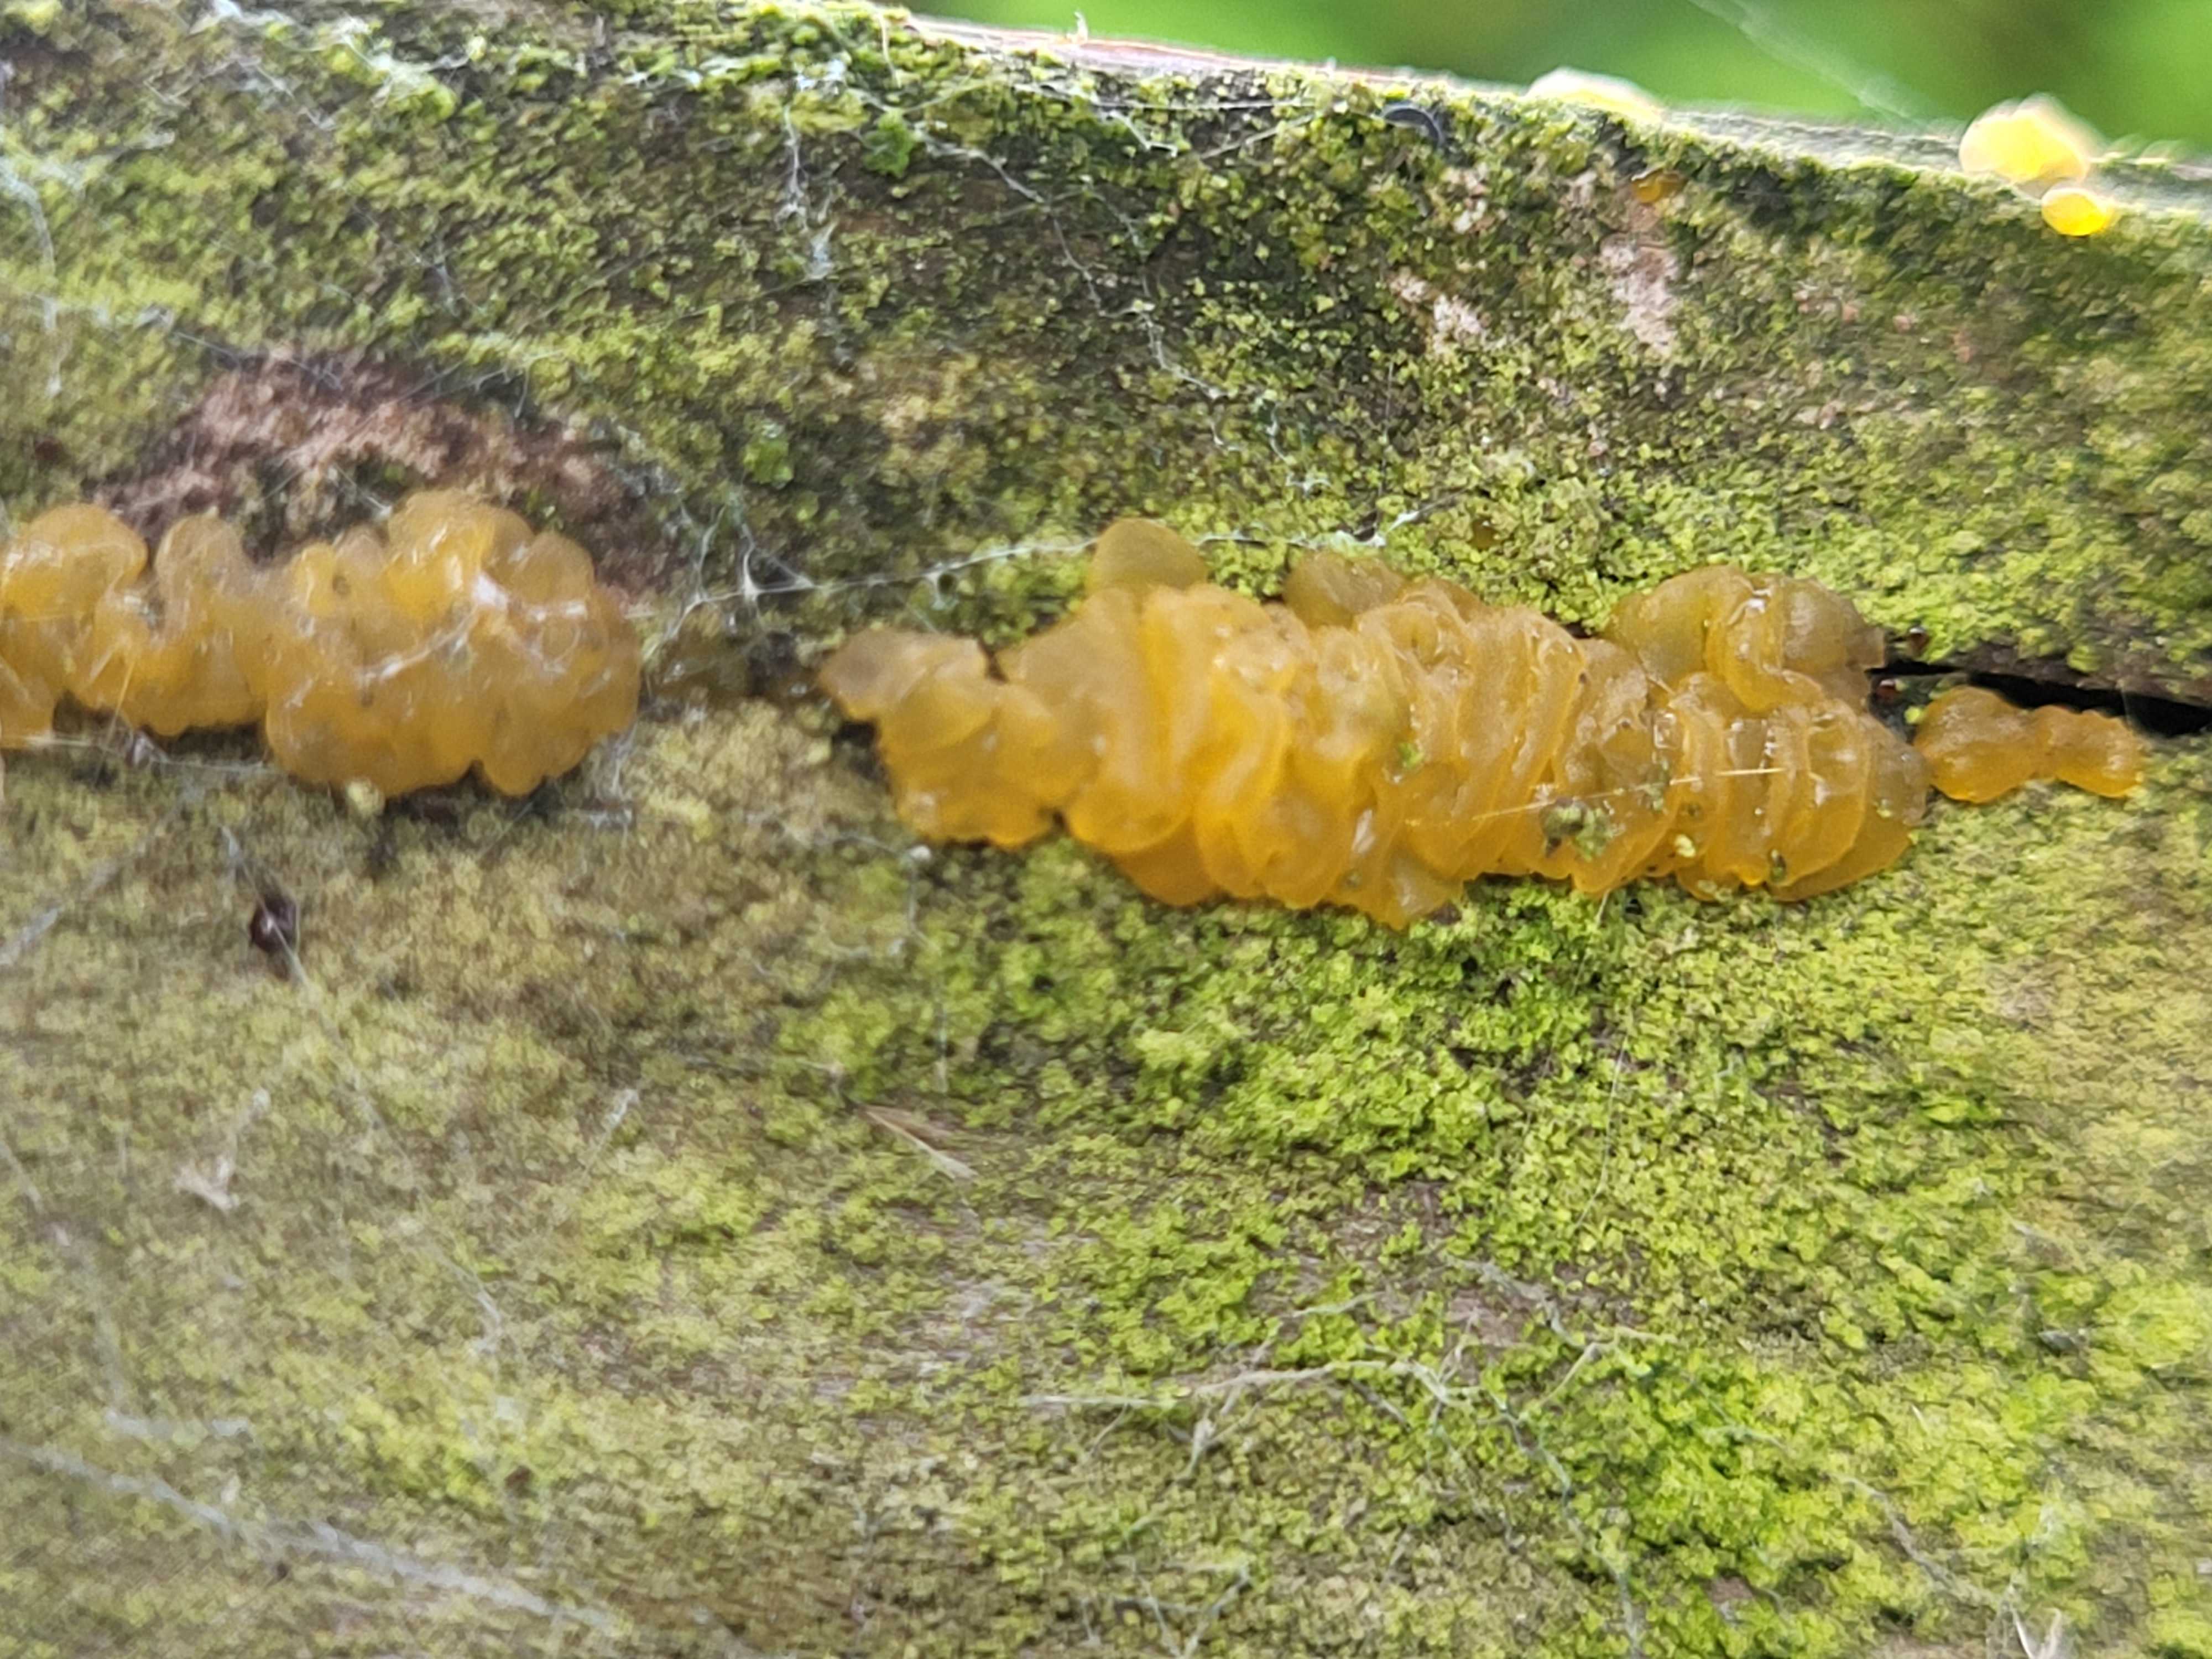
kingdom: Fungi
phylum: Basidiomycota
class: Dacrymycetes
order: Dacrymycetales
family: Dacrymycetaceae
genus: Dacrymyces
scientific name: Dacrymyces
